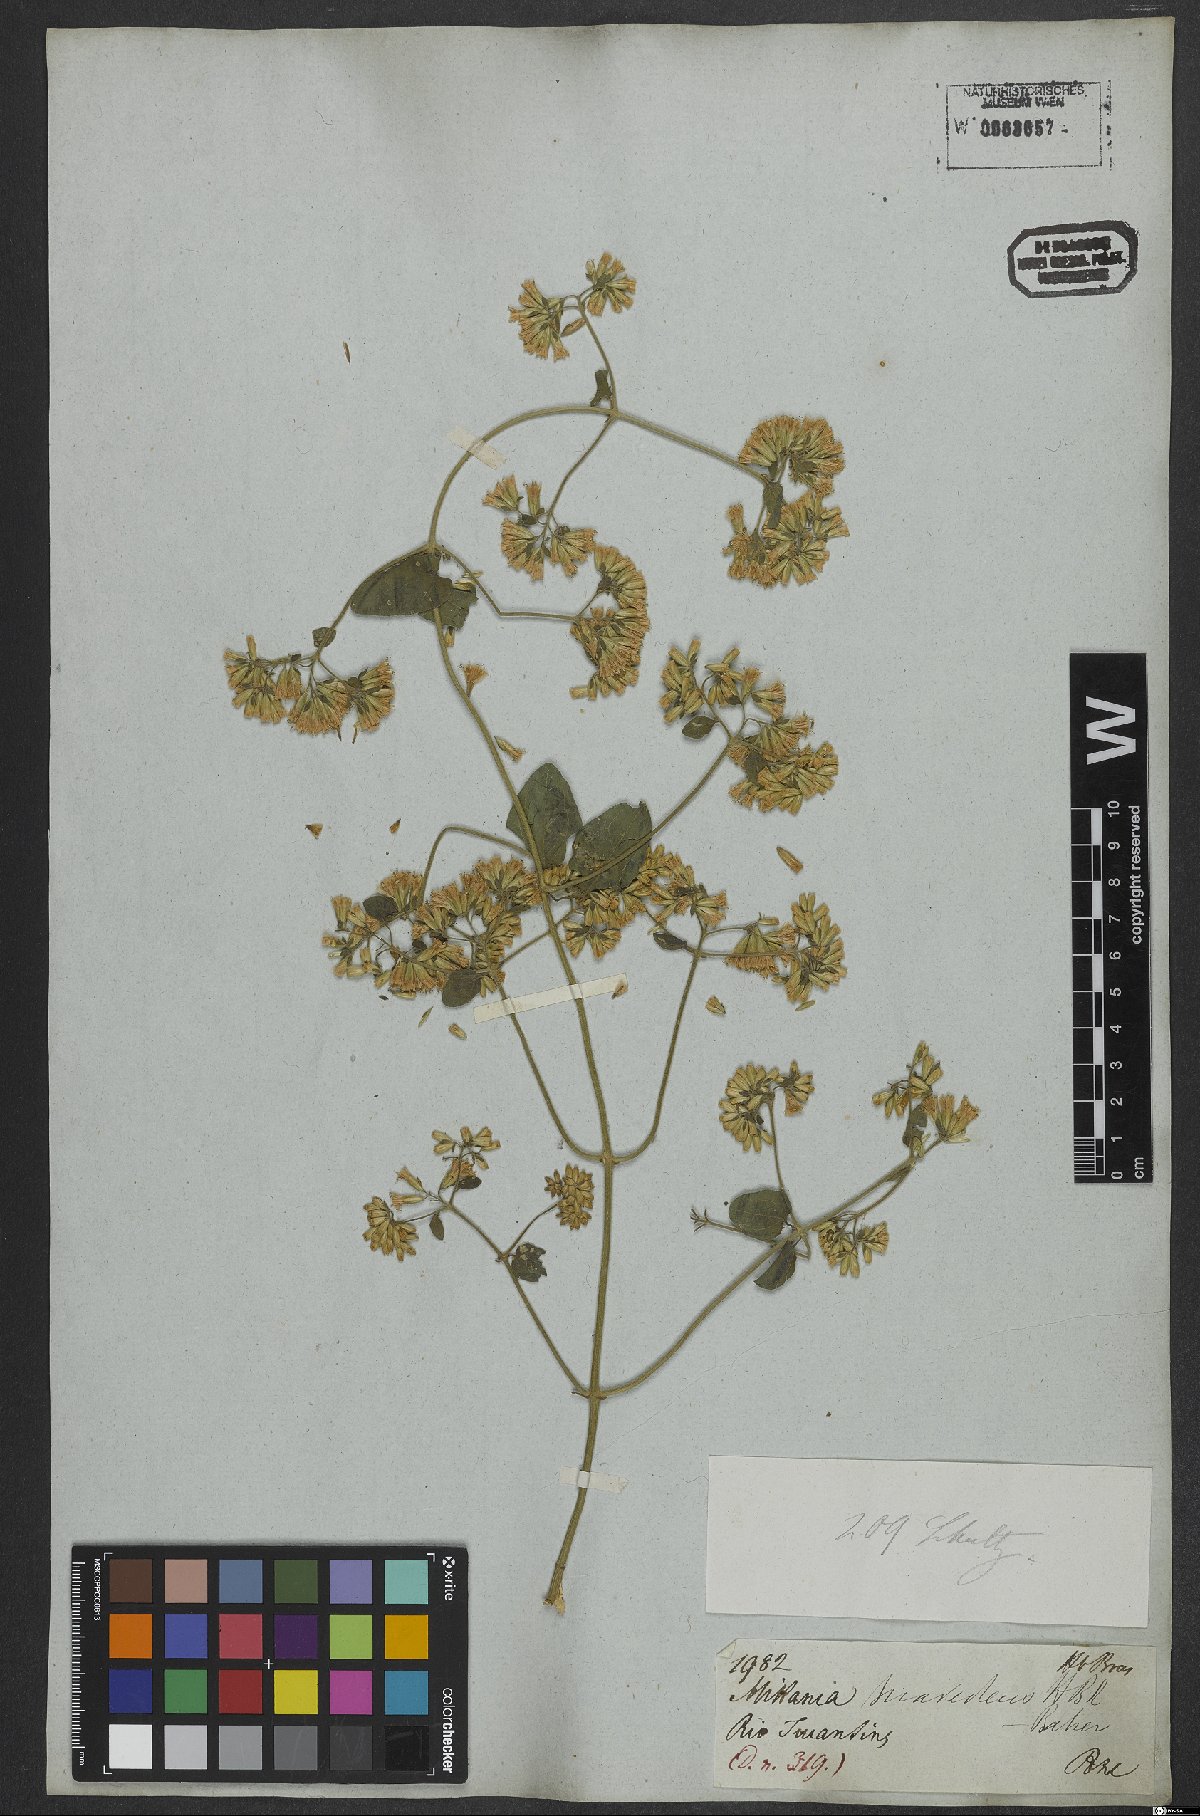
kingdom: Plantae
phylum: Tracheophyta
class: Magnoliopsida
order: Asterales
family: Asteraceae
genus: Mikania
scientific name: Mikania cordifolia
